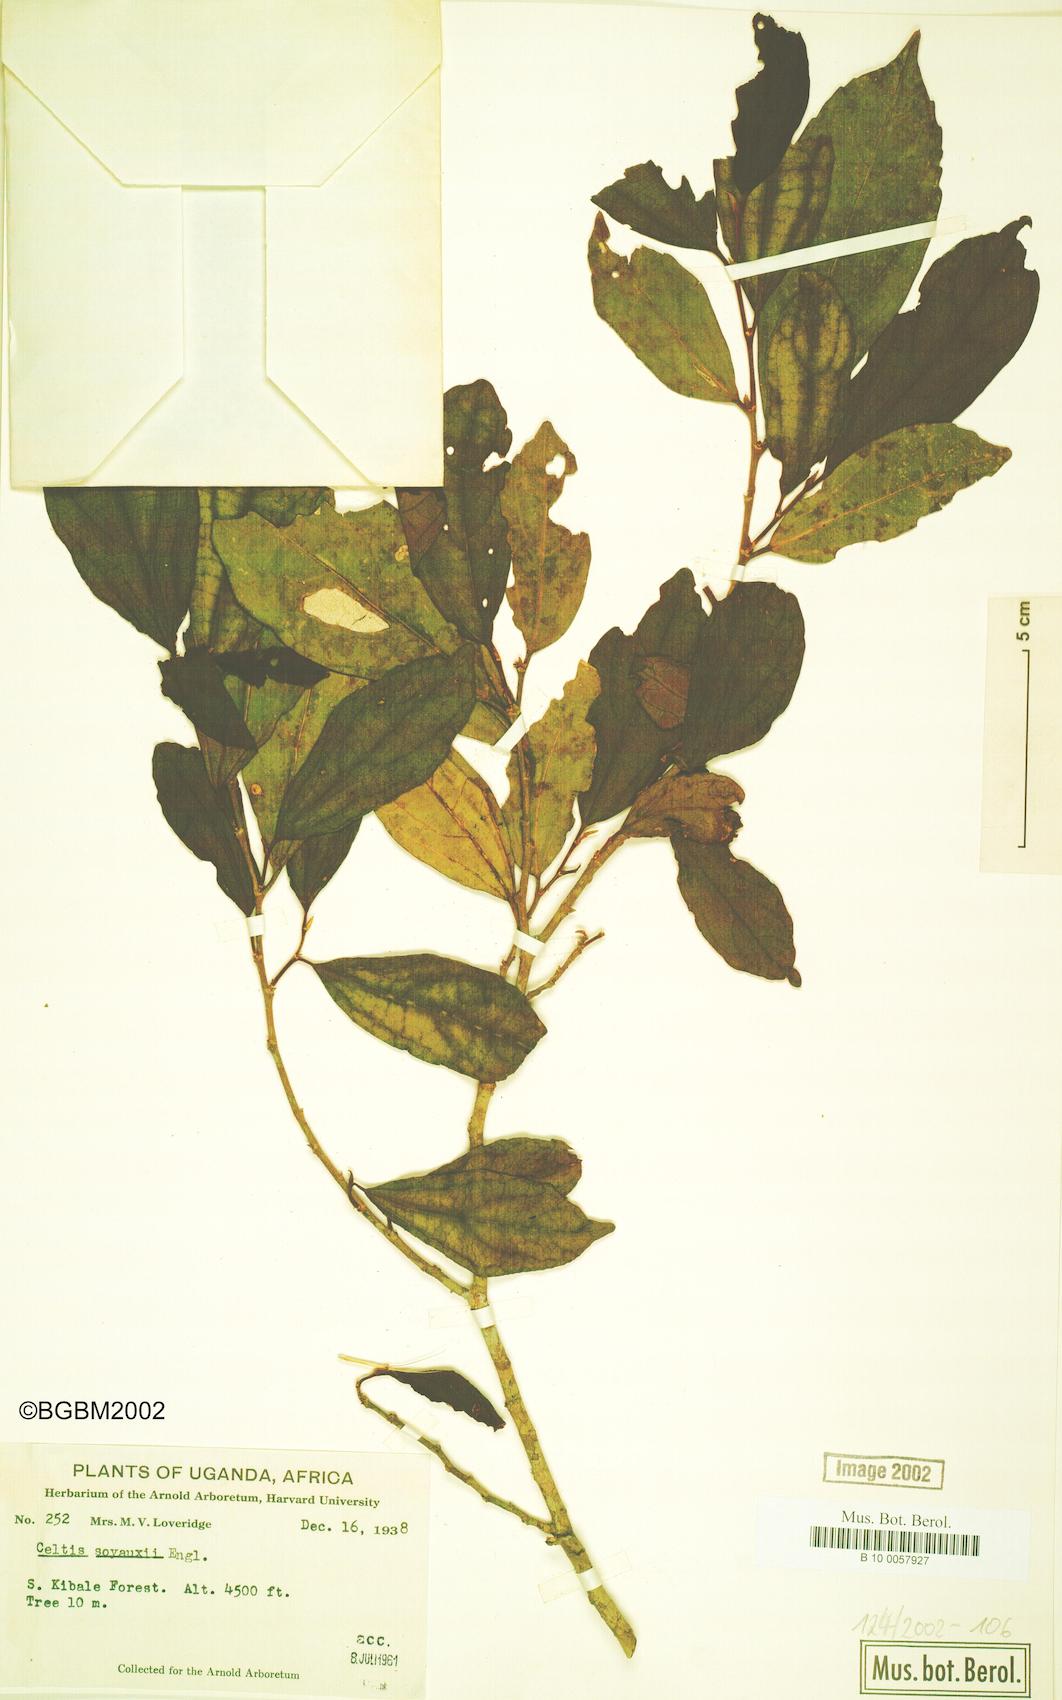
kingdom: Plantae
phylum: Tracheophyta
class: Magnoliopsida
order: Rosales
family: Cannabaceae
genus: Celtis
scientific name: Celtis zenkeri
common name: African celtis
